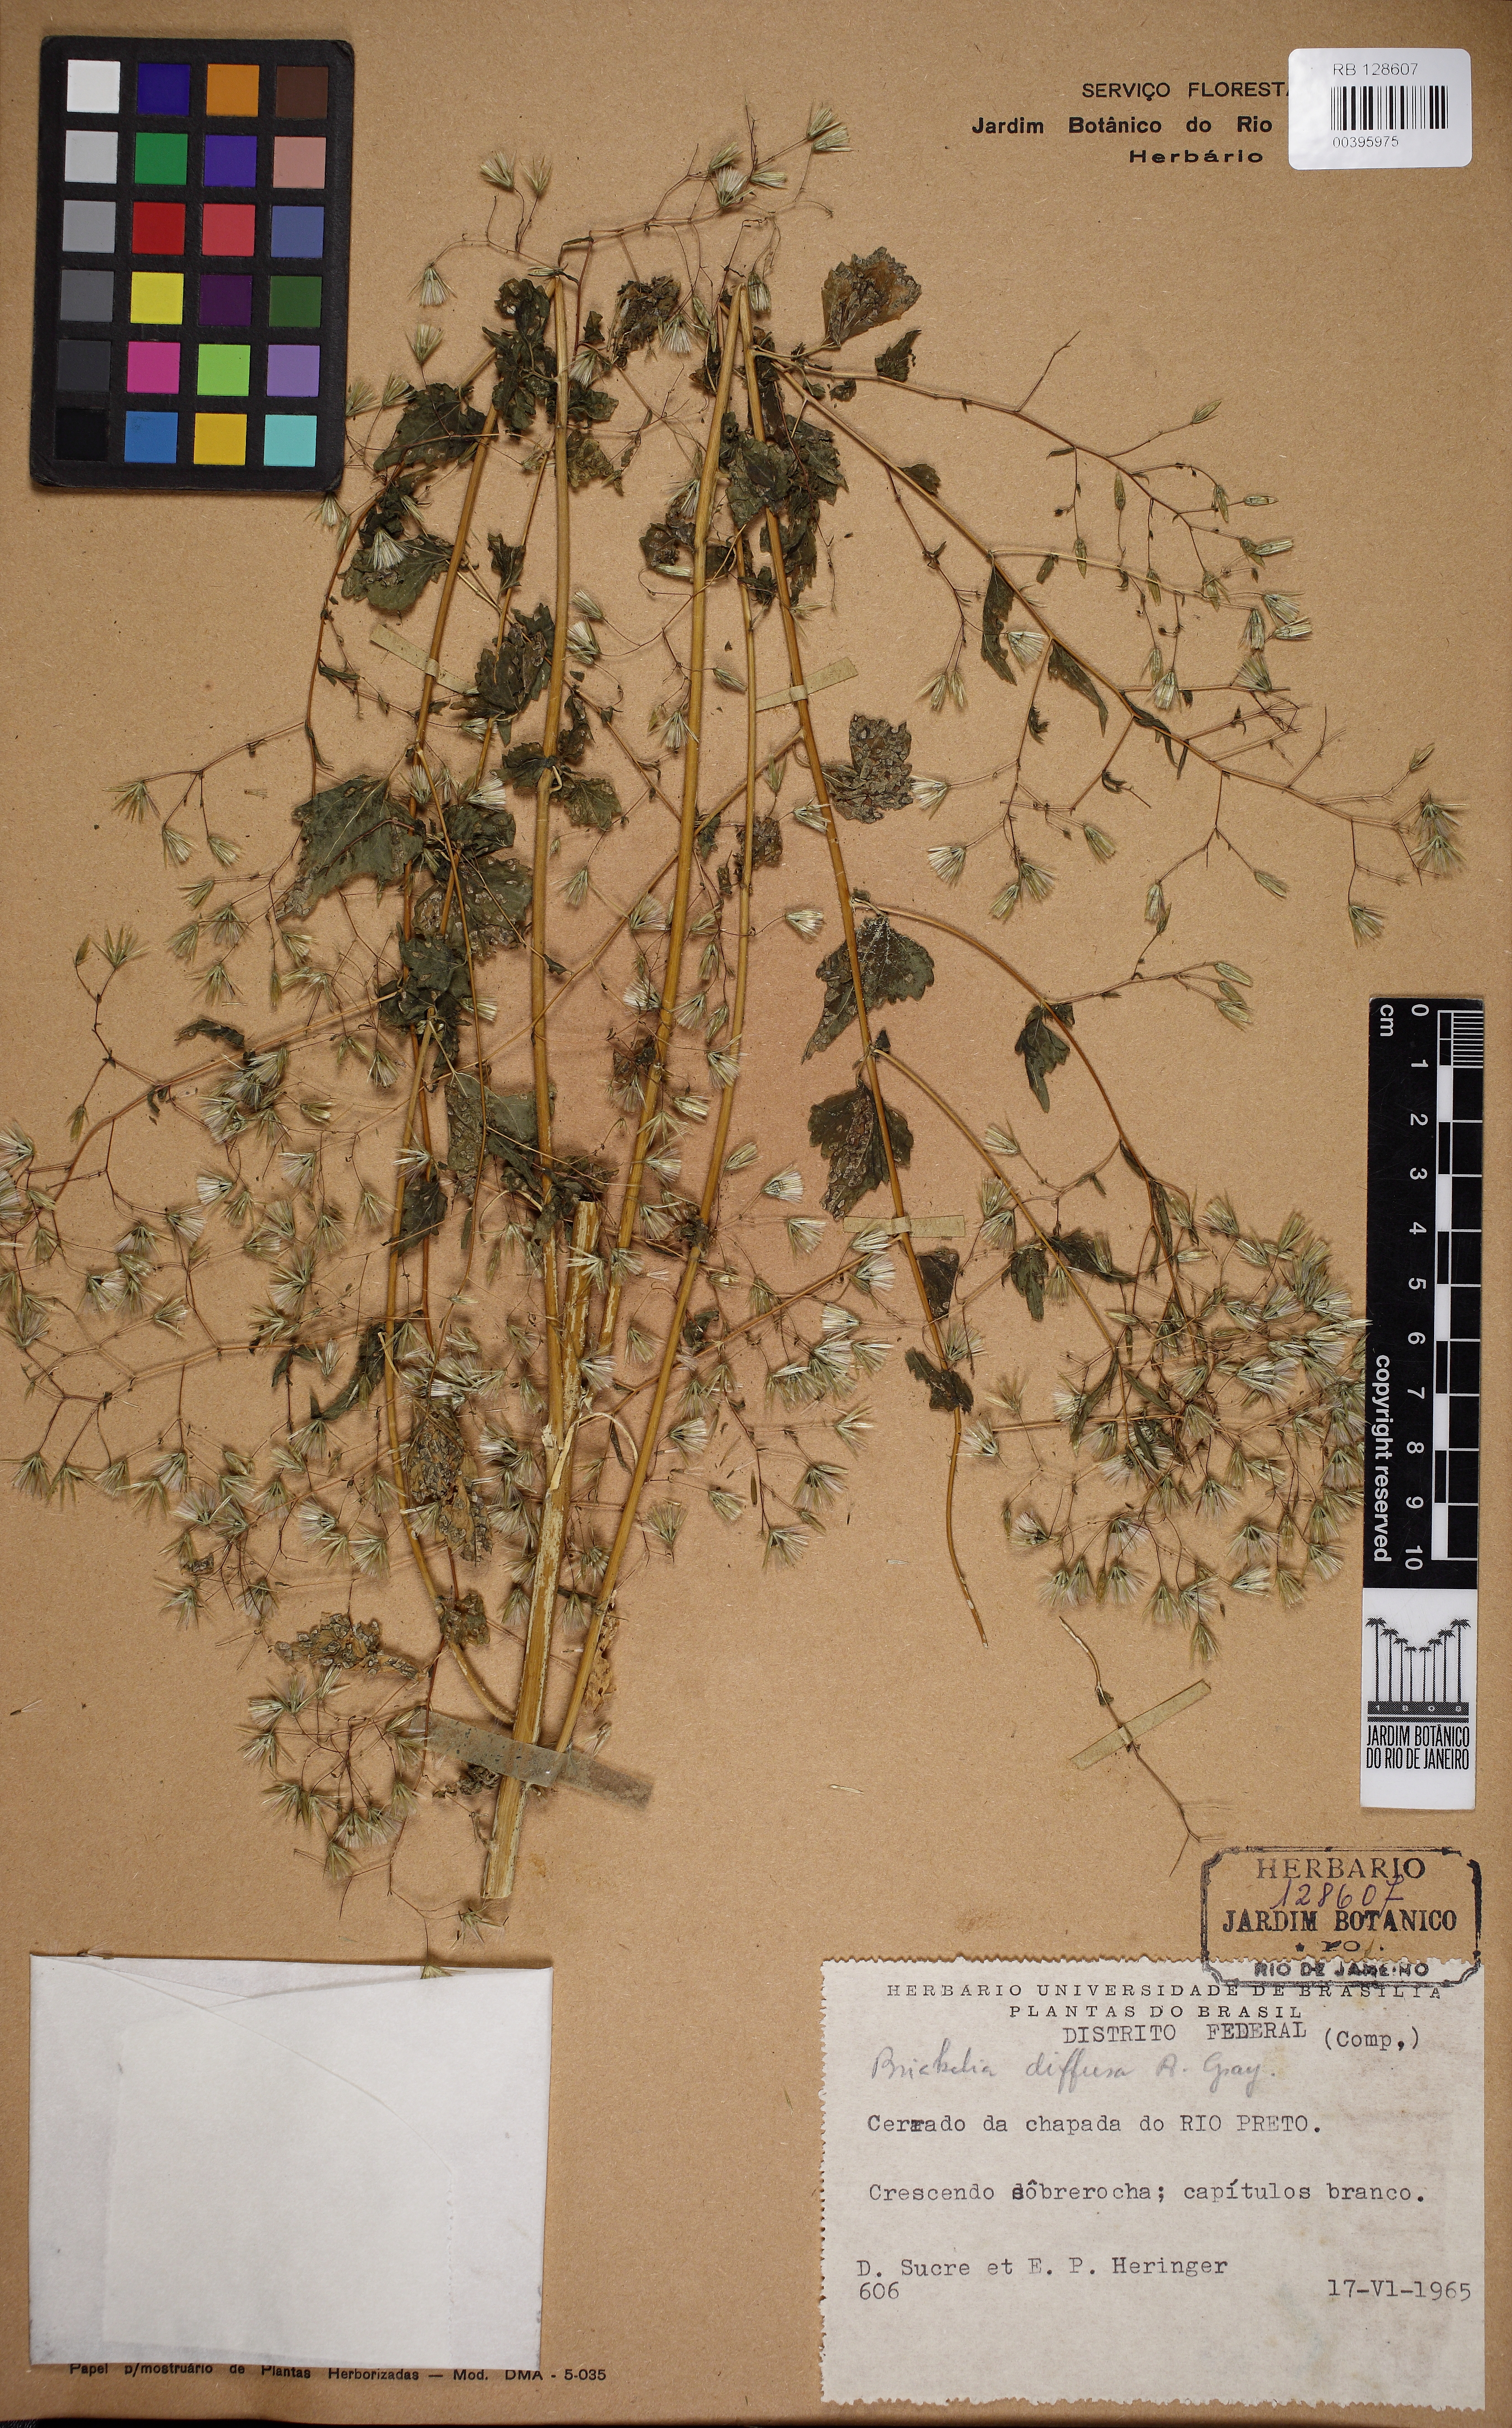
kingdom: Plantae
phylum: Tracheophyta
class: Magnoliopsida
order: Asterales
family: Asteraceae
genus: Brickellia
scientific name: Brickellia diffusa
